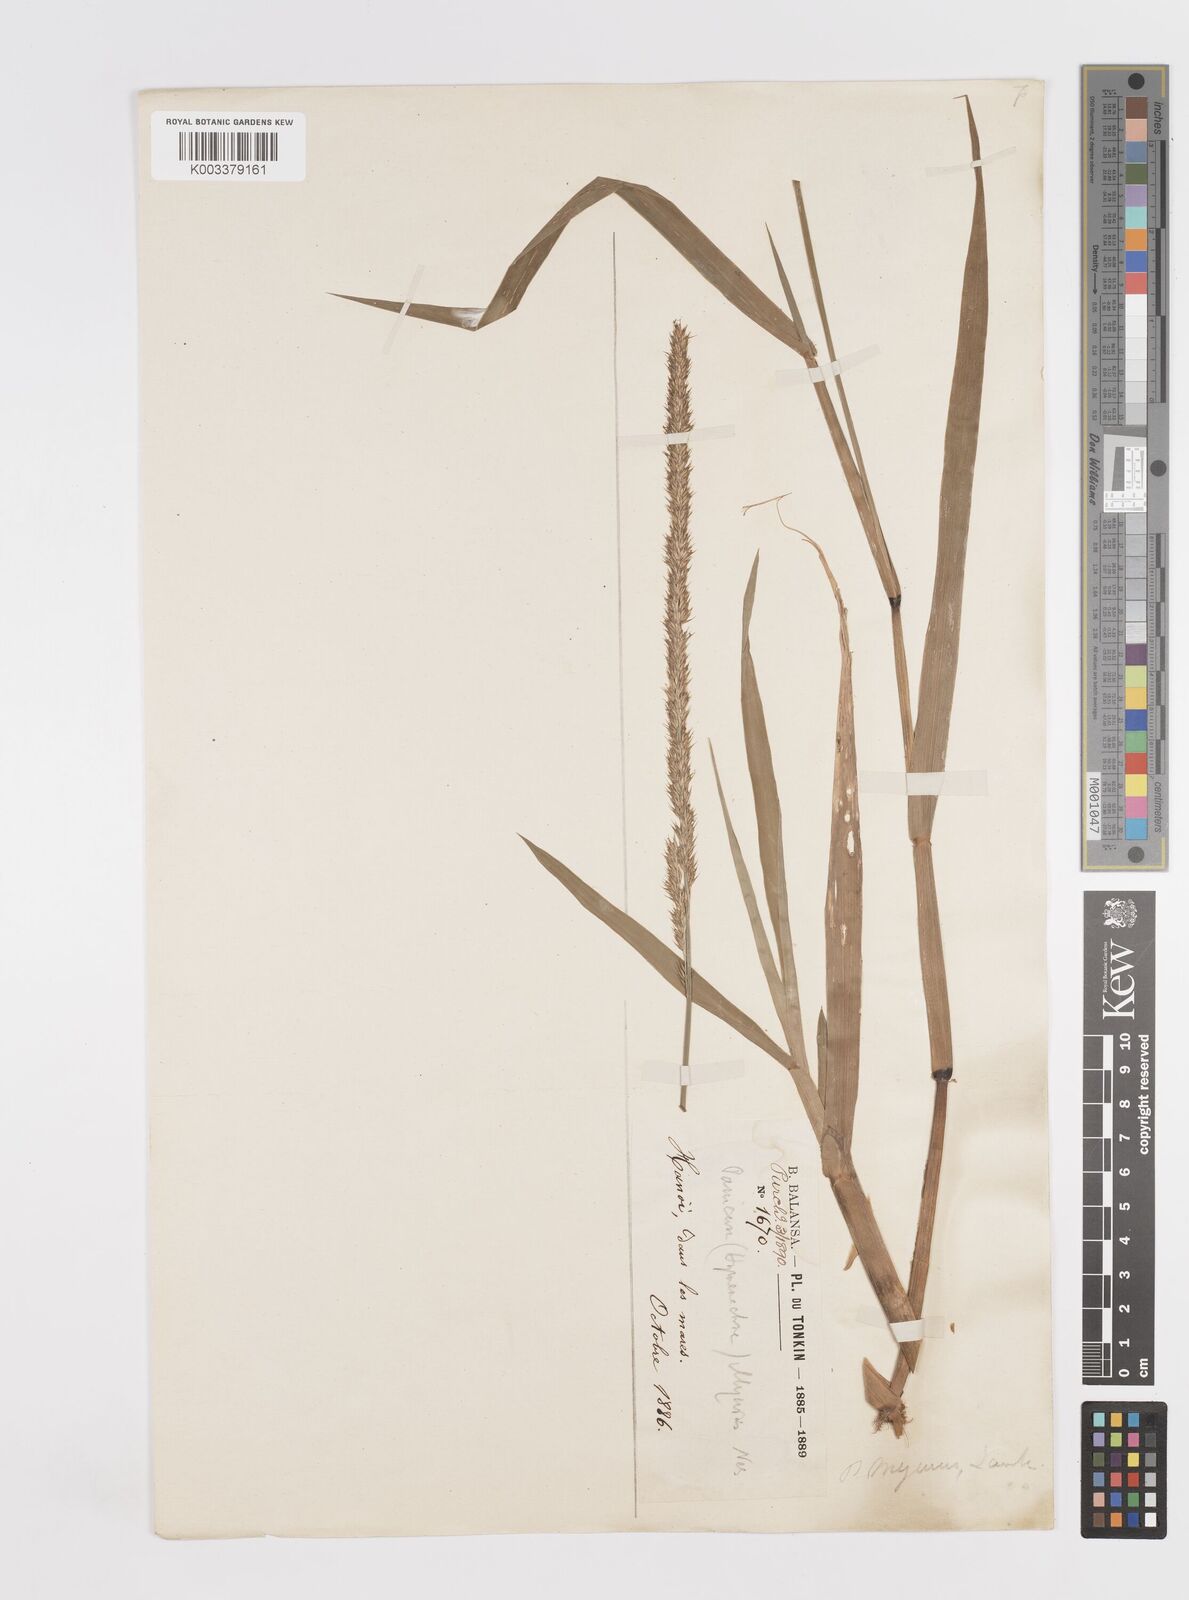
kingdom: Plantae
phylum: Tracheophyta
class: Liliopsida
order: Poales
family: Poaceae
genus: Hymenachne
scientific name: Hymenachne amplexicaulis
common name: Olive hymenachne
